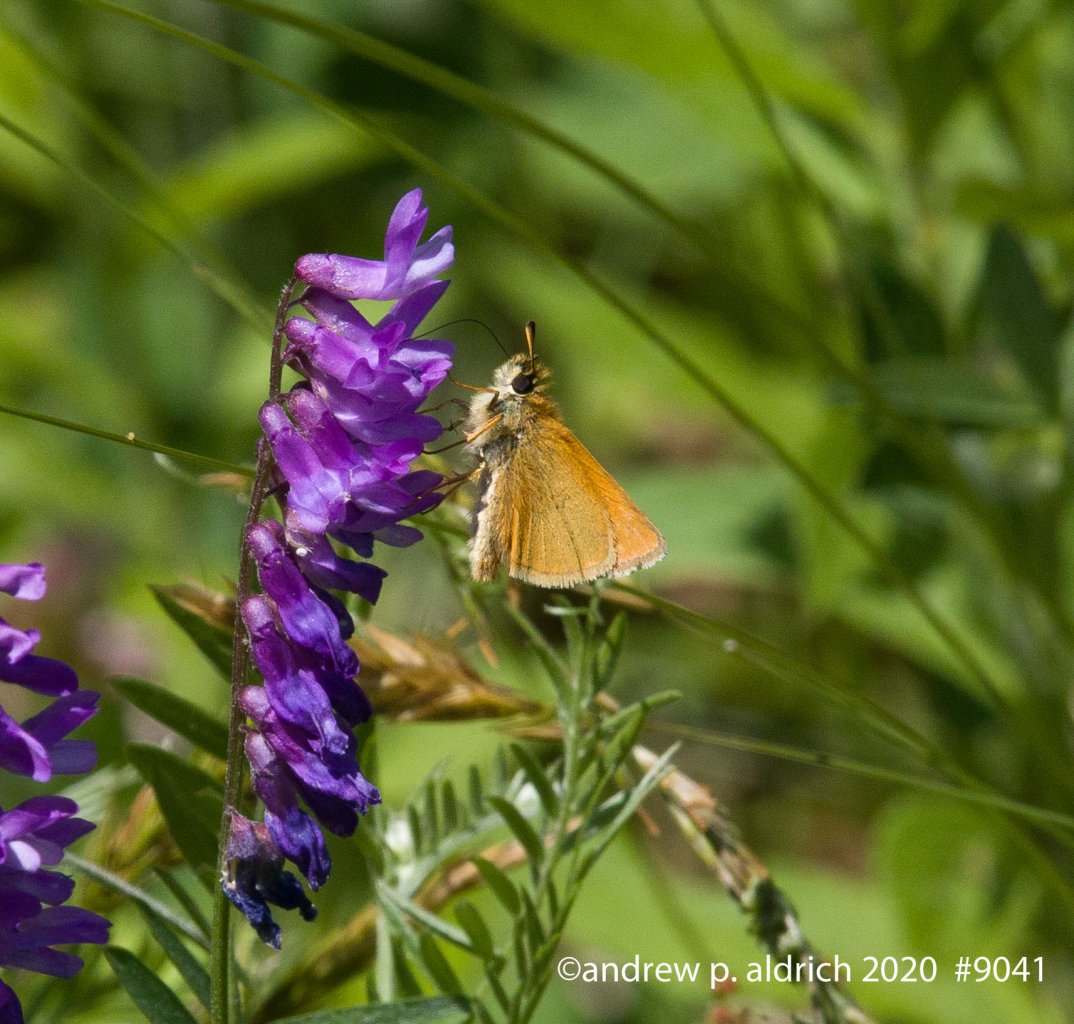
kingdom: Animalia
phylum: Arthropoda
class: Insecta
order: Lepidoptera
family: Hesperiidae
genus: Ancyloxypha
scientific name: Ancyloxypha numitor
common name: Least Skipper
